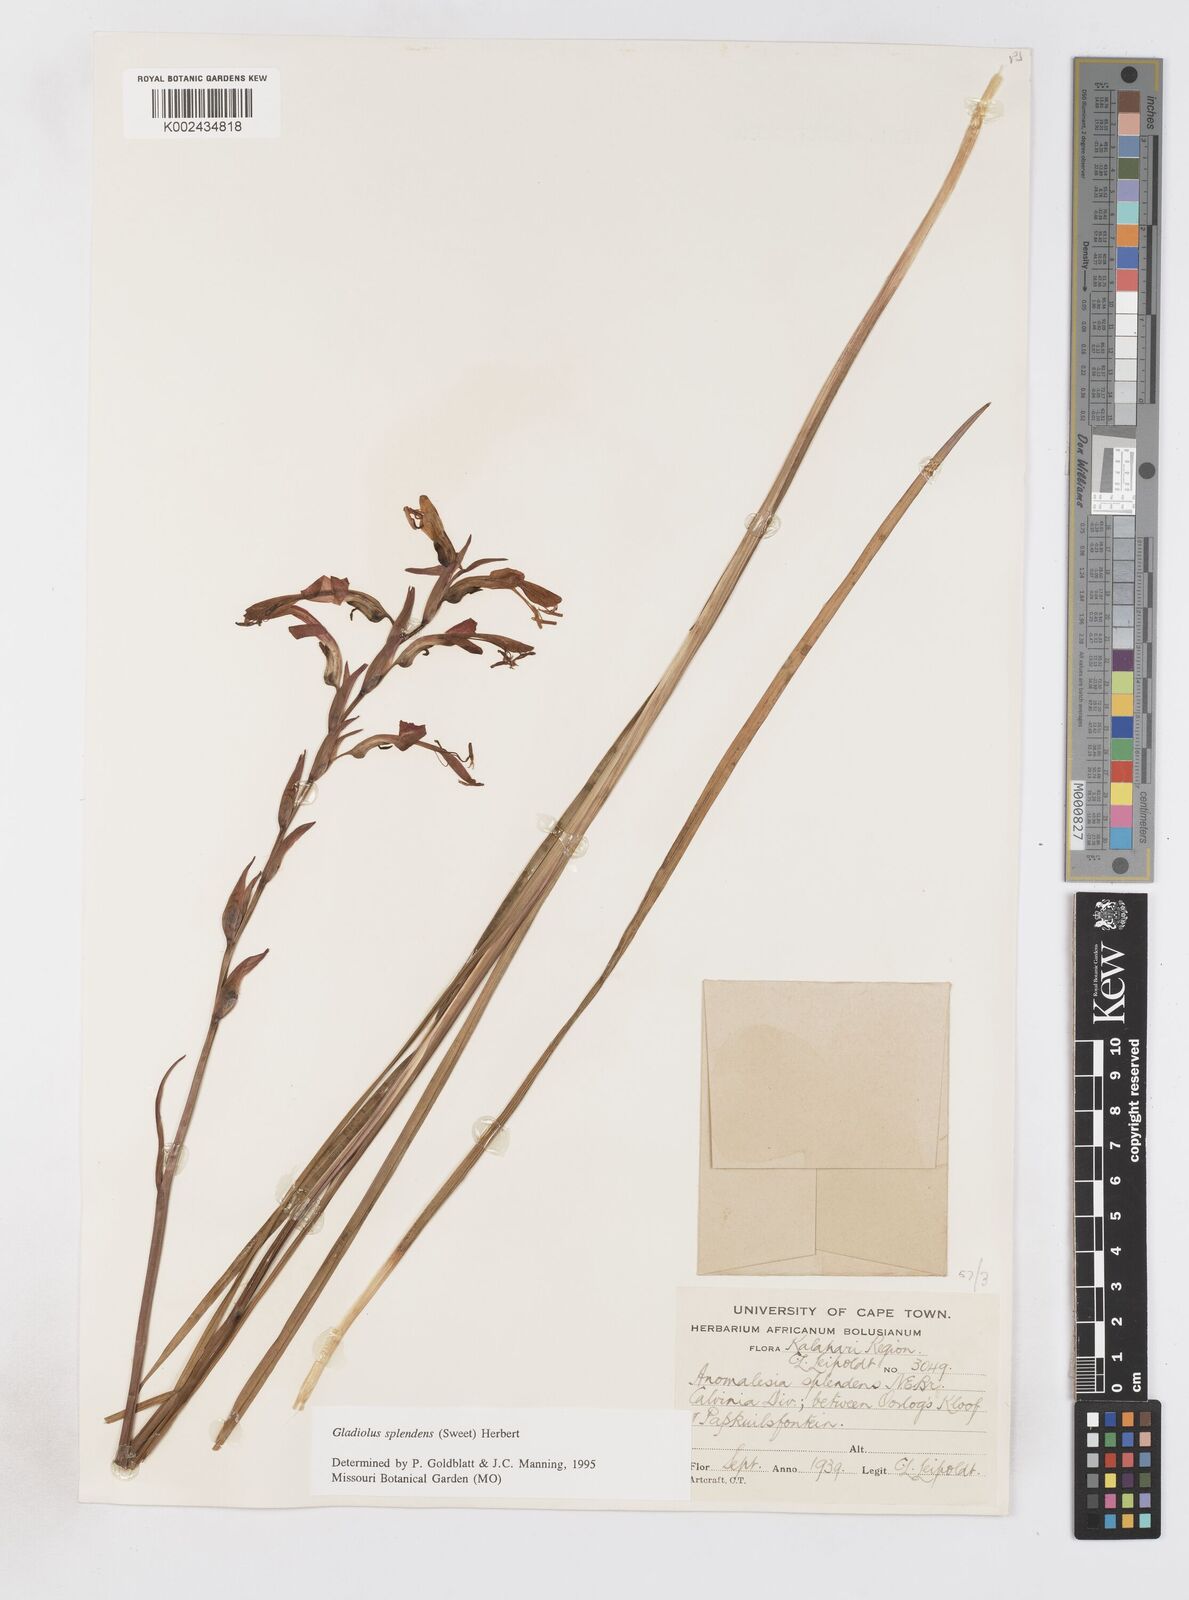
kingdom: Plantae
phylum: Tracheophyta
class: Liliopsida
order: Asparagales
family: Iridaceae
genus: Gladiolus
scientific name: Gladiolus splendens
